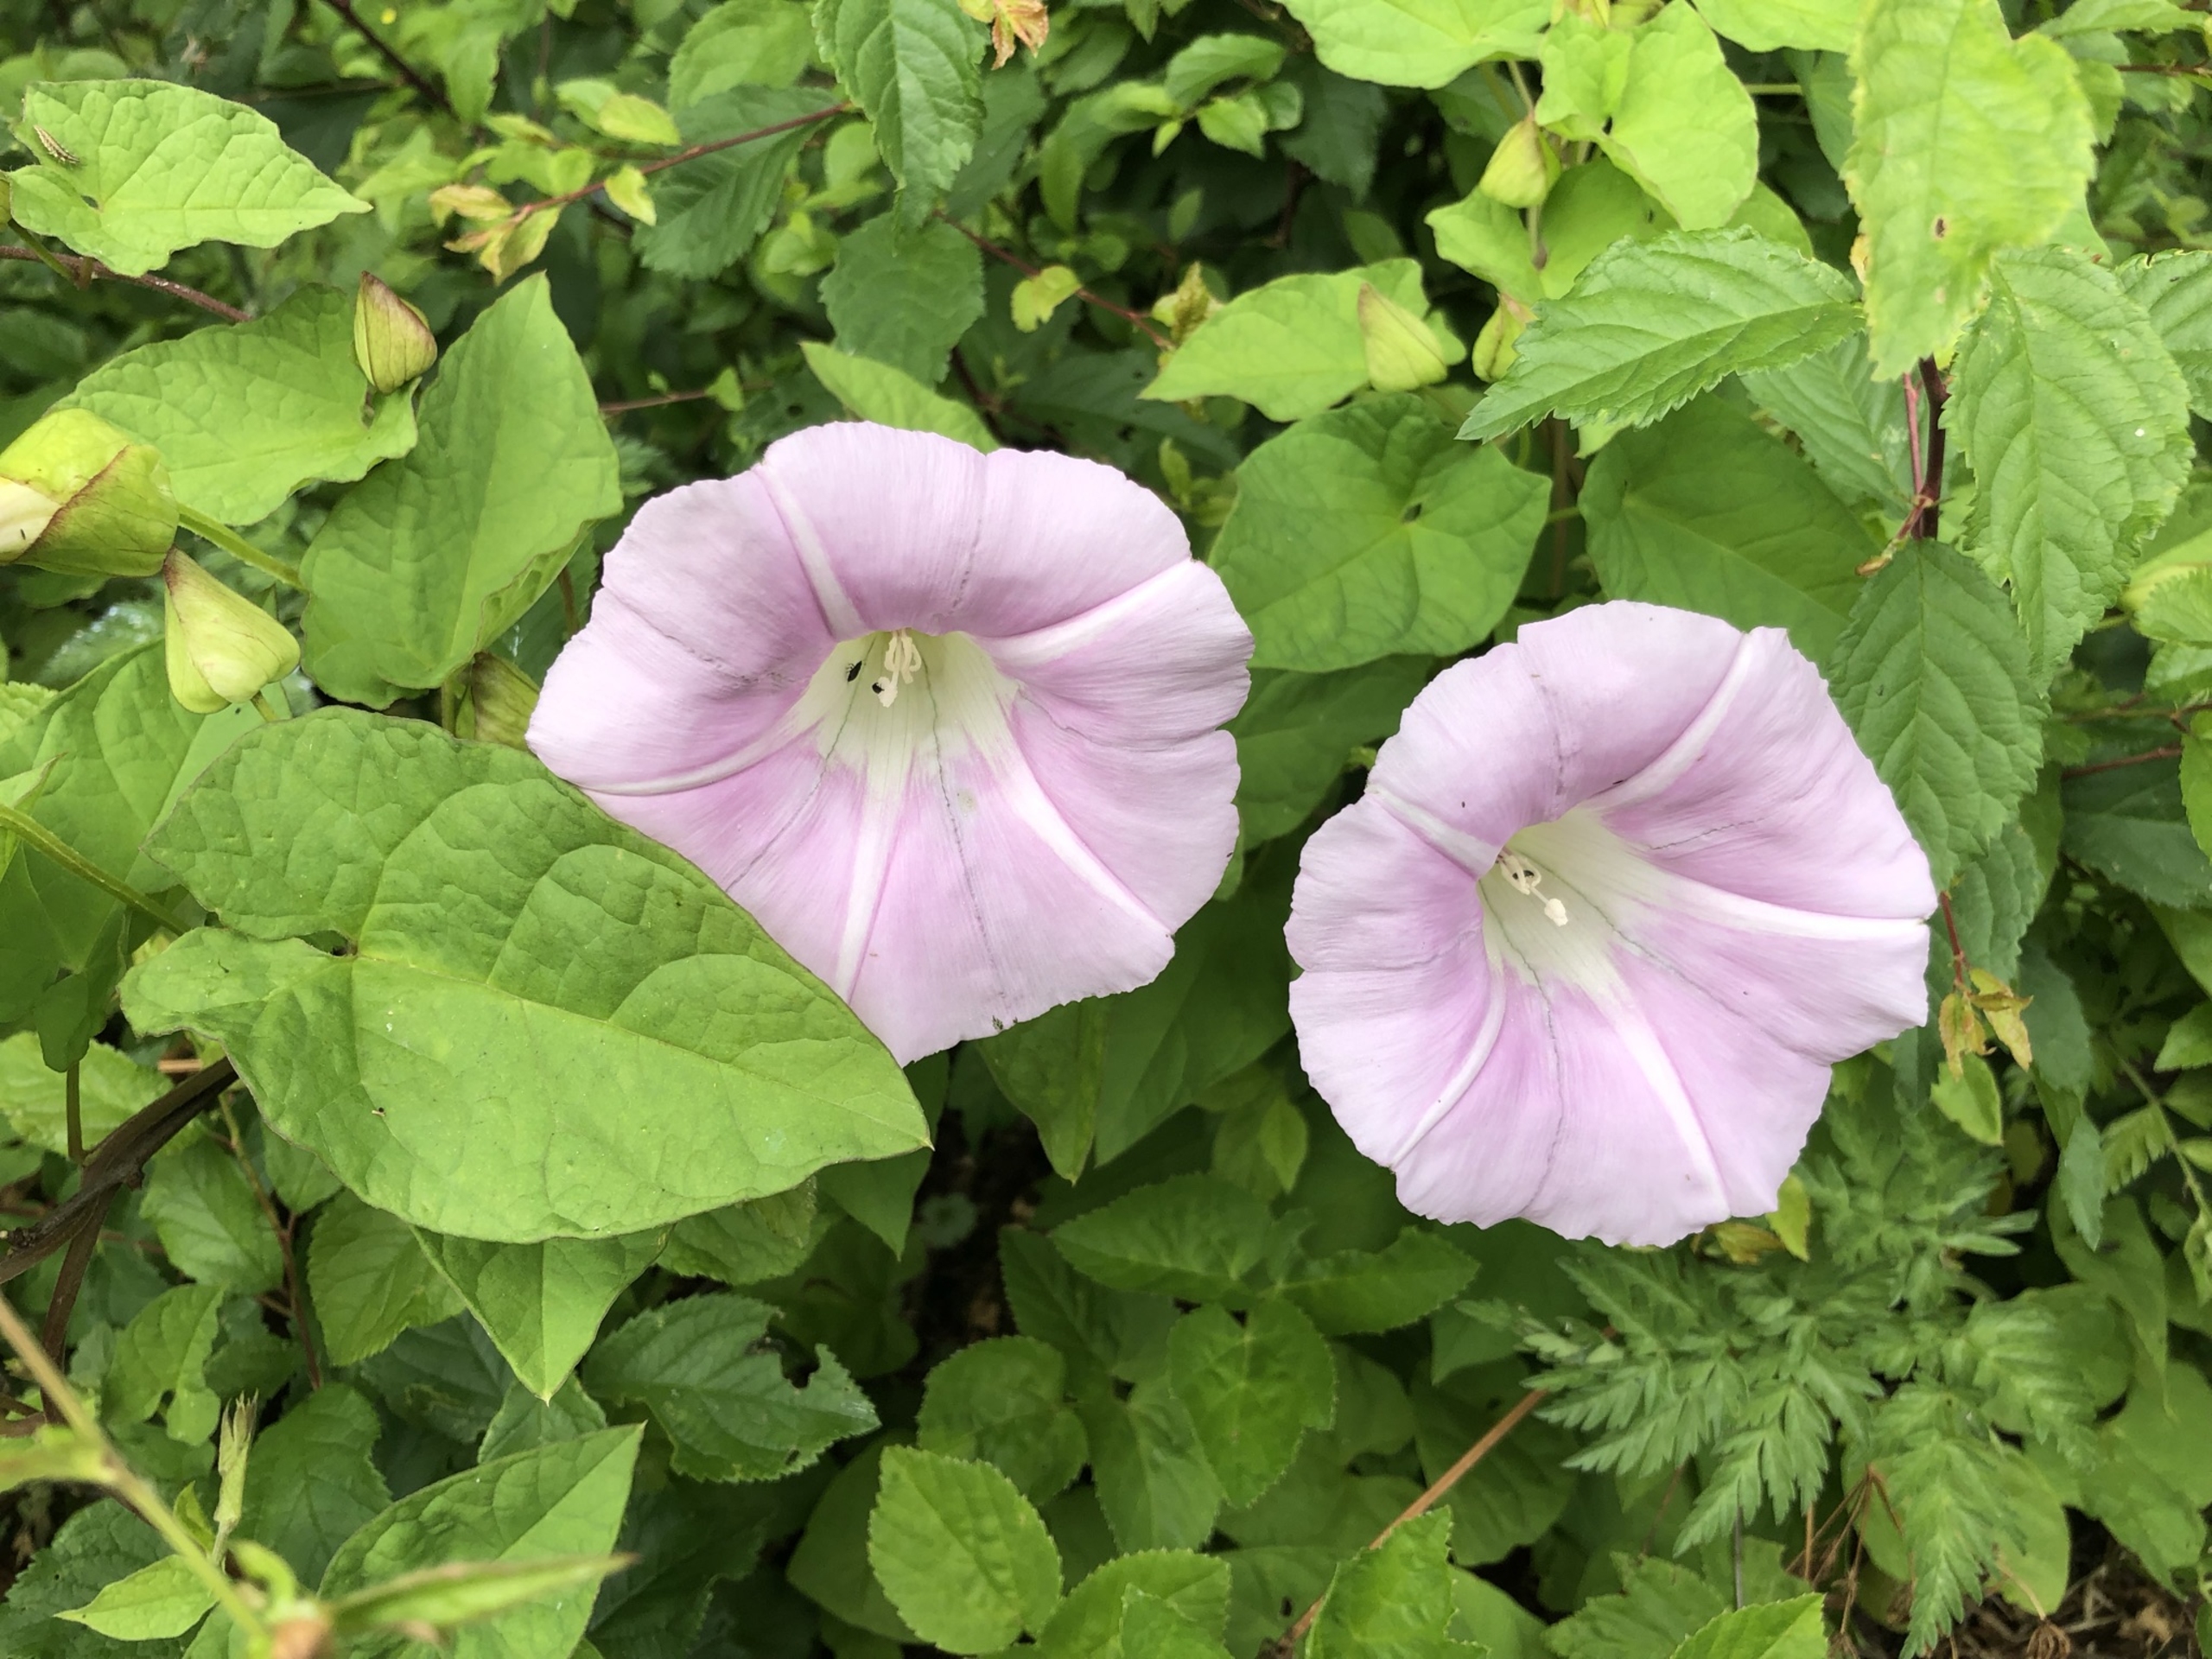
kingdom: Plantae
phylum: Tracheophyta
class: Magnoliopsida
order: Solanales
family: Convolvulaceae
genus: Calystegia
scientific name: Calystegia sepium
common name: Pragt-snerle
